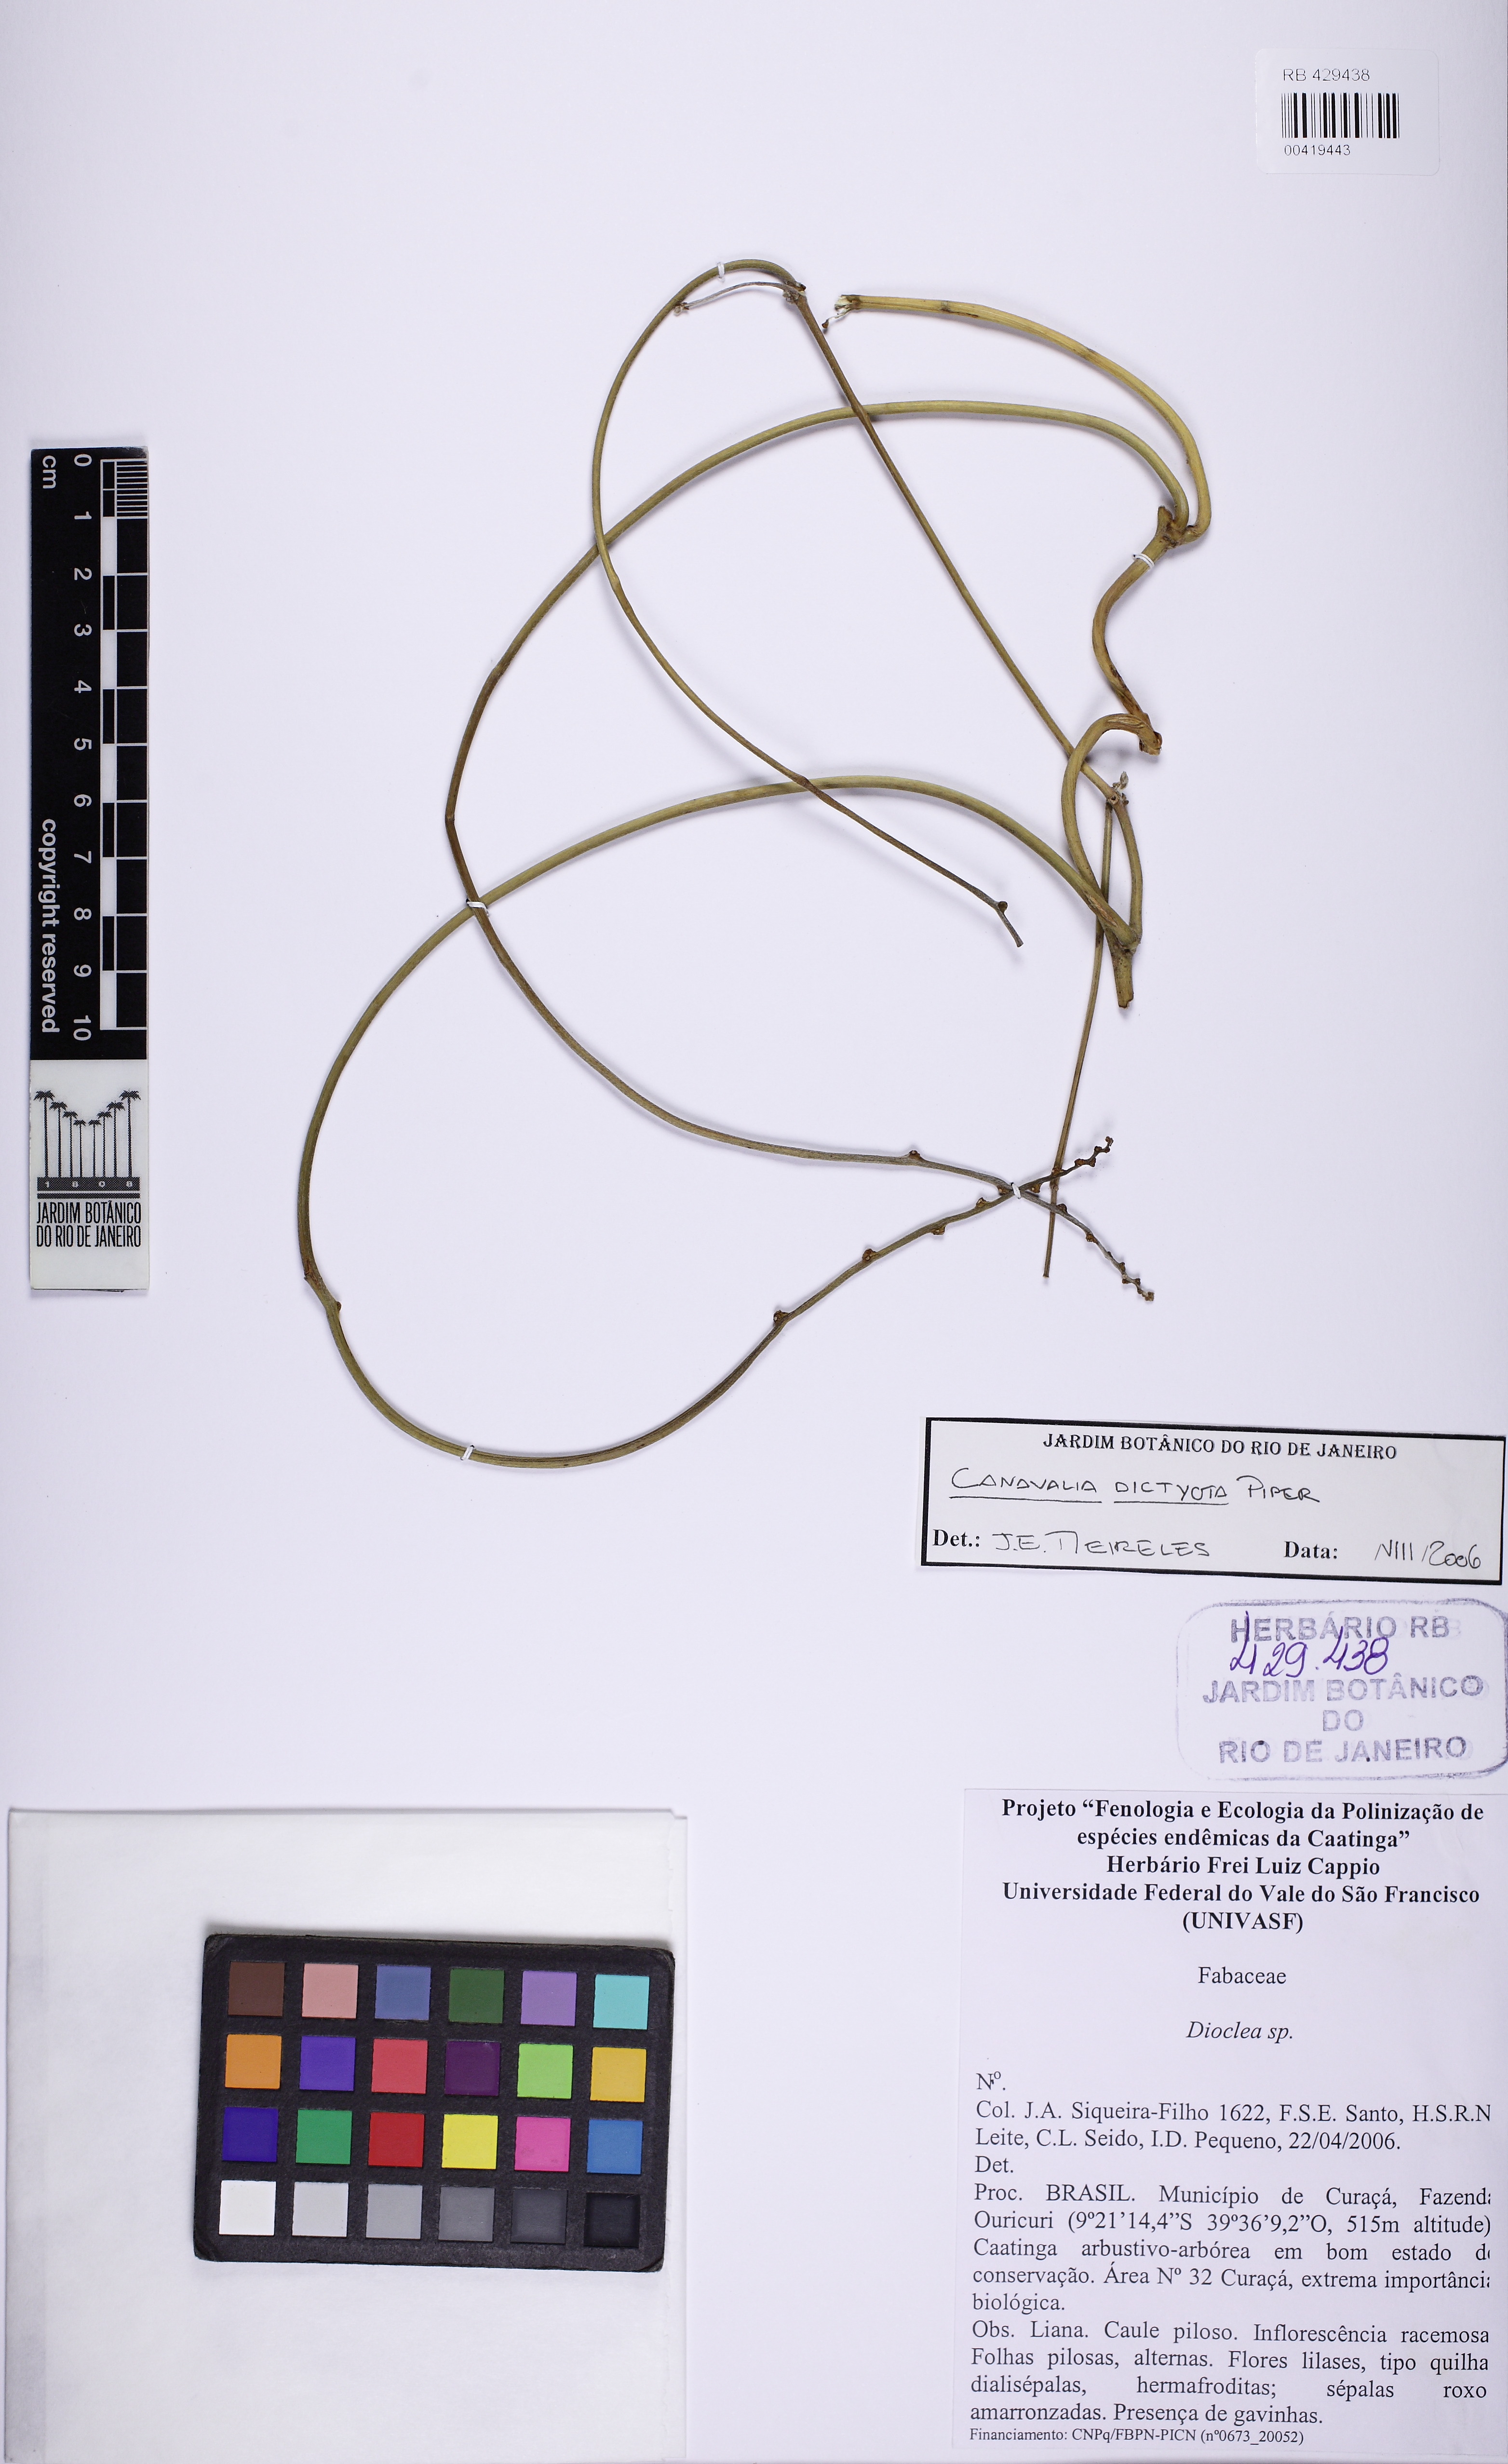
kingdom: Plantae
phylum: Tracheophyta
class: Magnoliopsida
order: Fabales
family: Fabaceae
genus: Canavalia
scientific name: Canavalia brasiliensis
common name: Barbicou-bean
